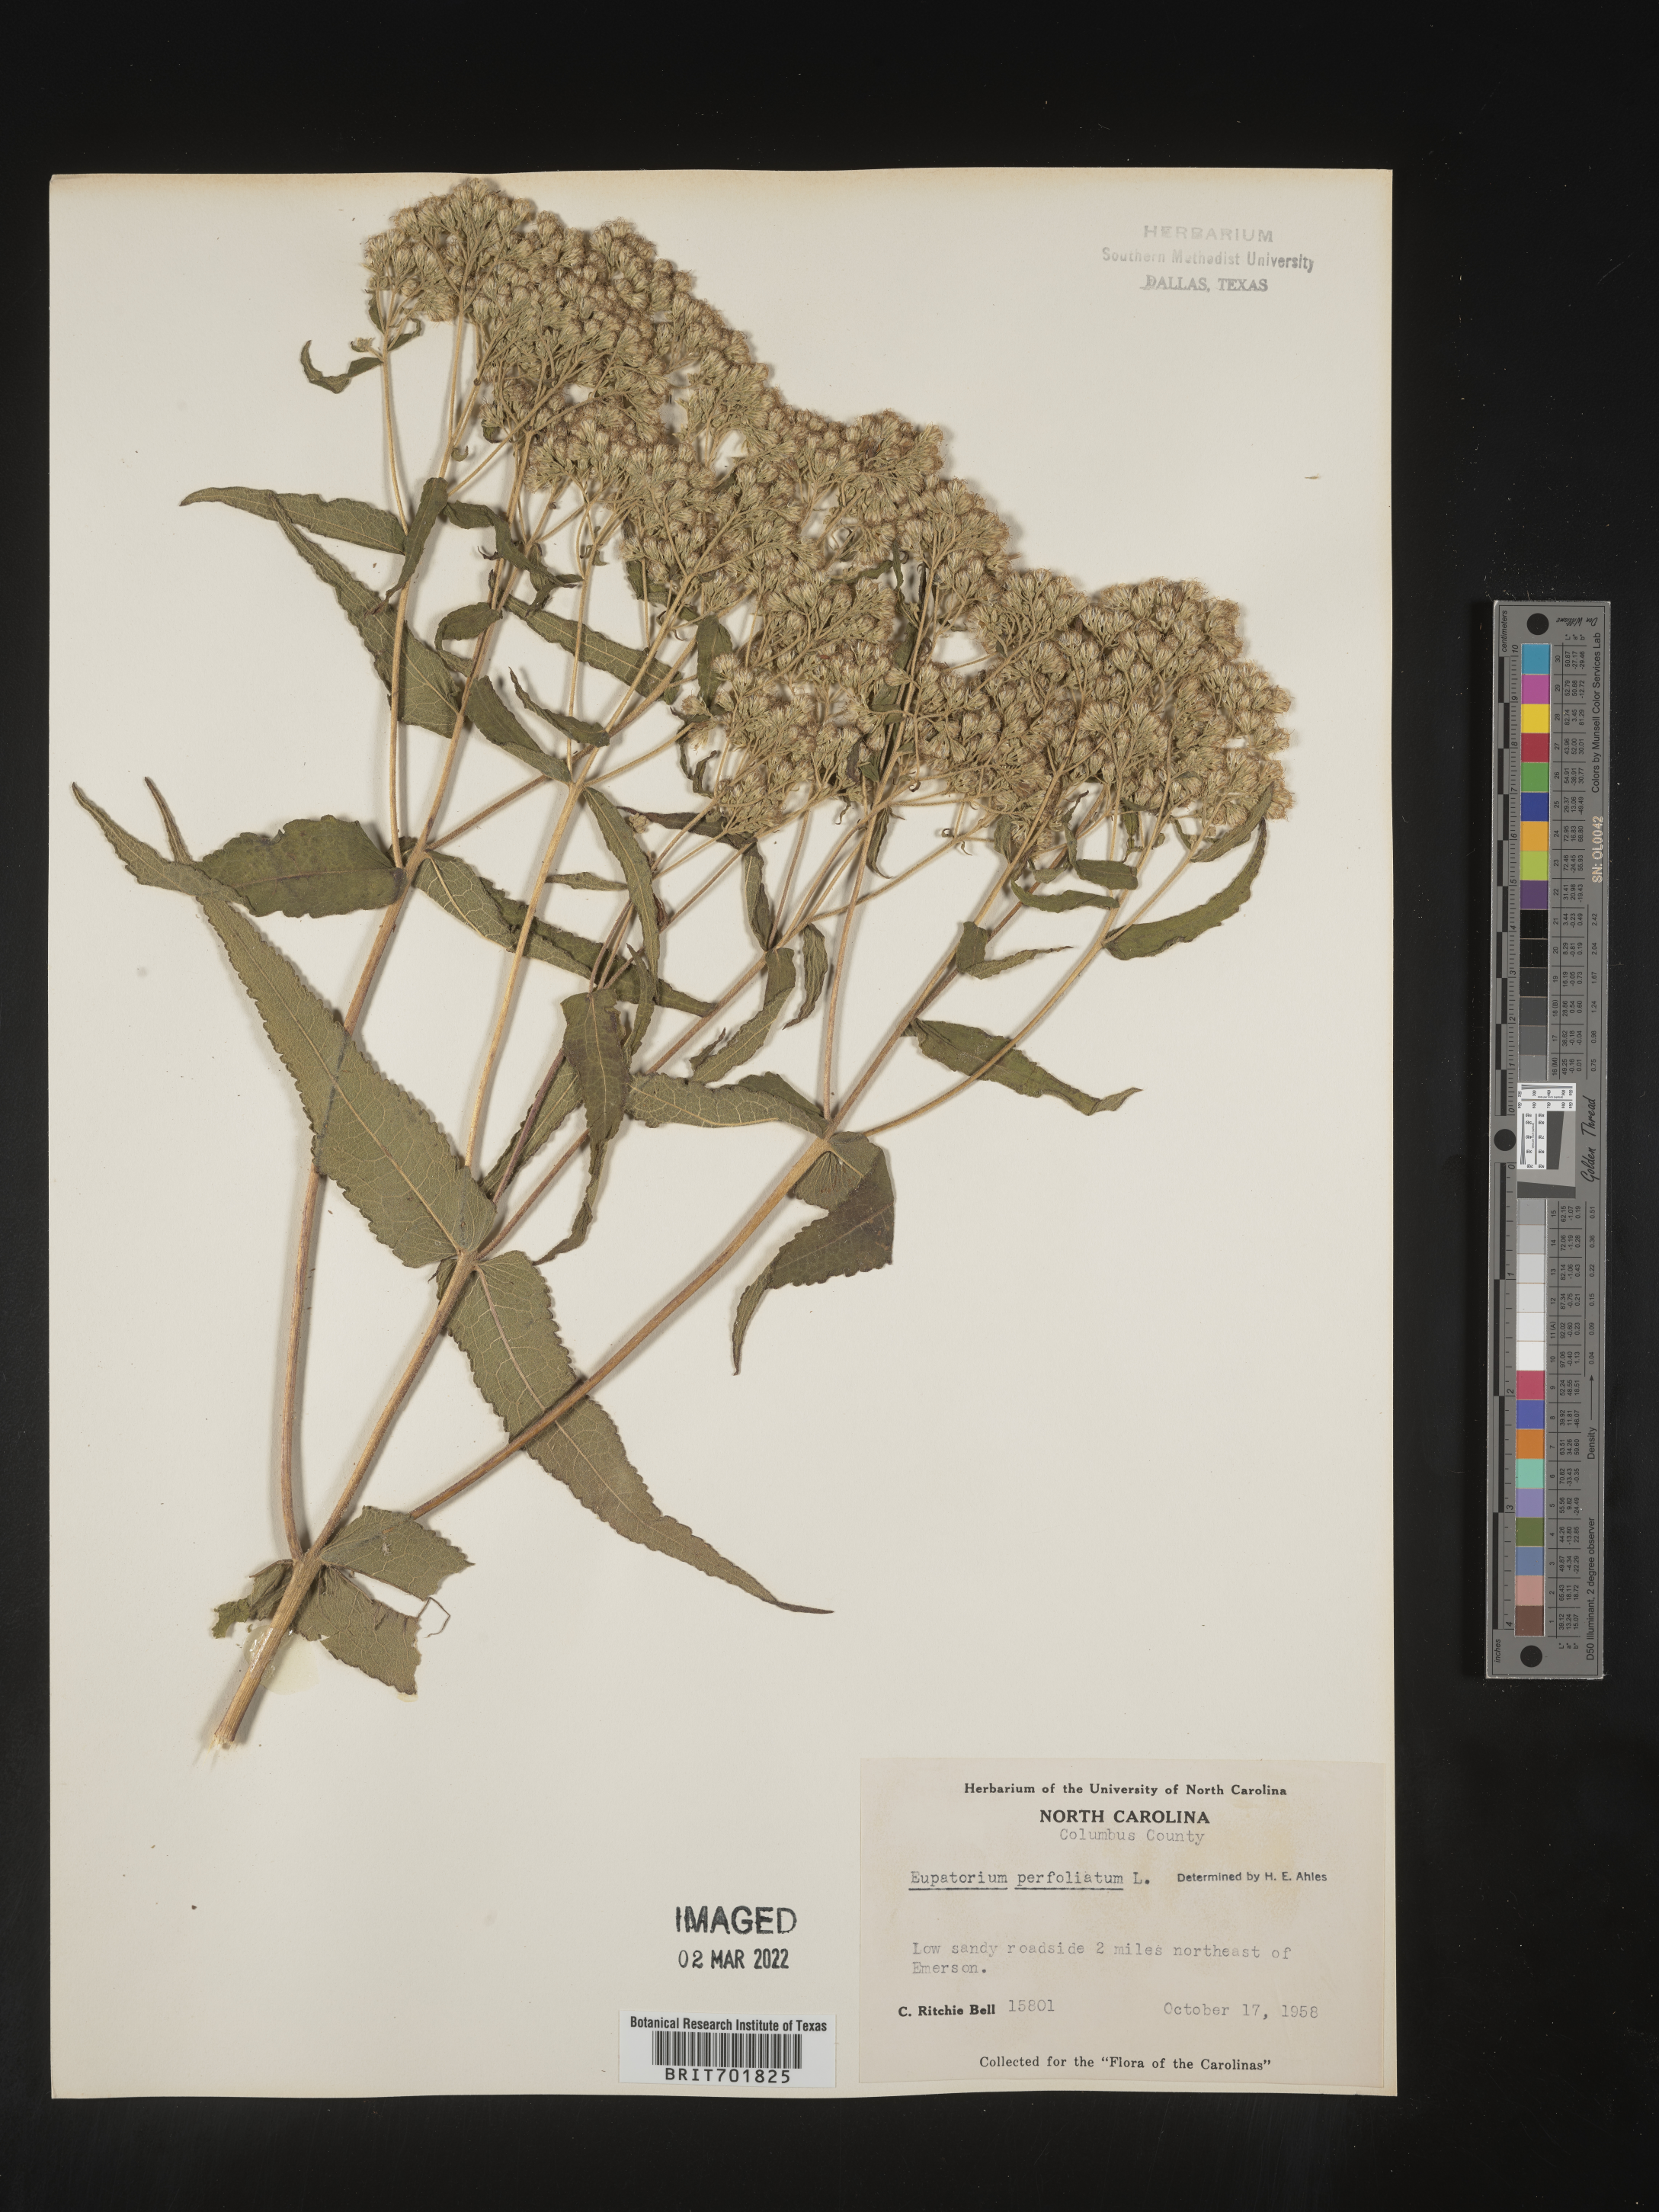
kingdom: Plantae
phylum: Tracheophyta
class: Magnoliopsida
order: Asterales
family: Asteraceae
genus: Eupatorium
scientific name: Eupatorium perfoliatum
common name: Boneset
